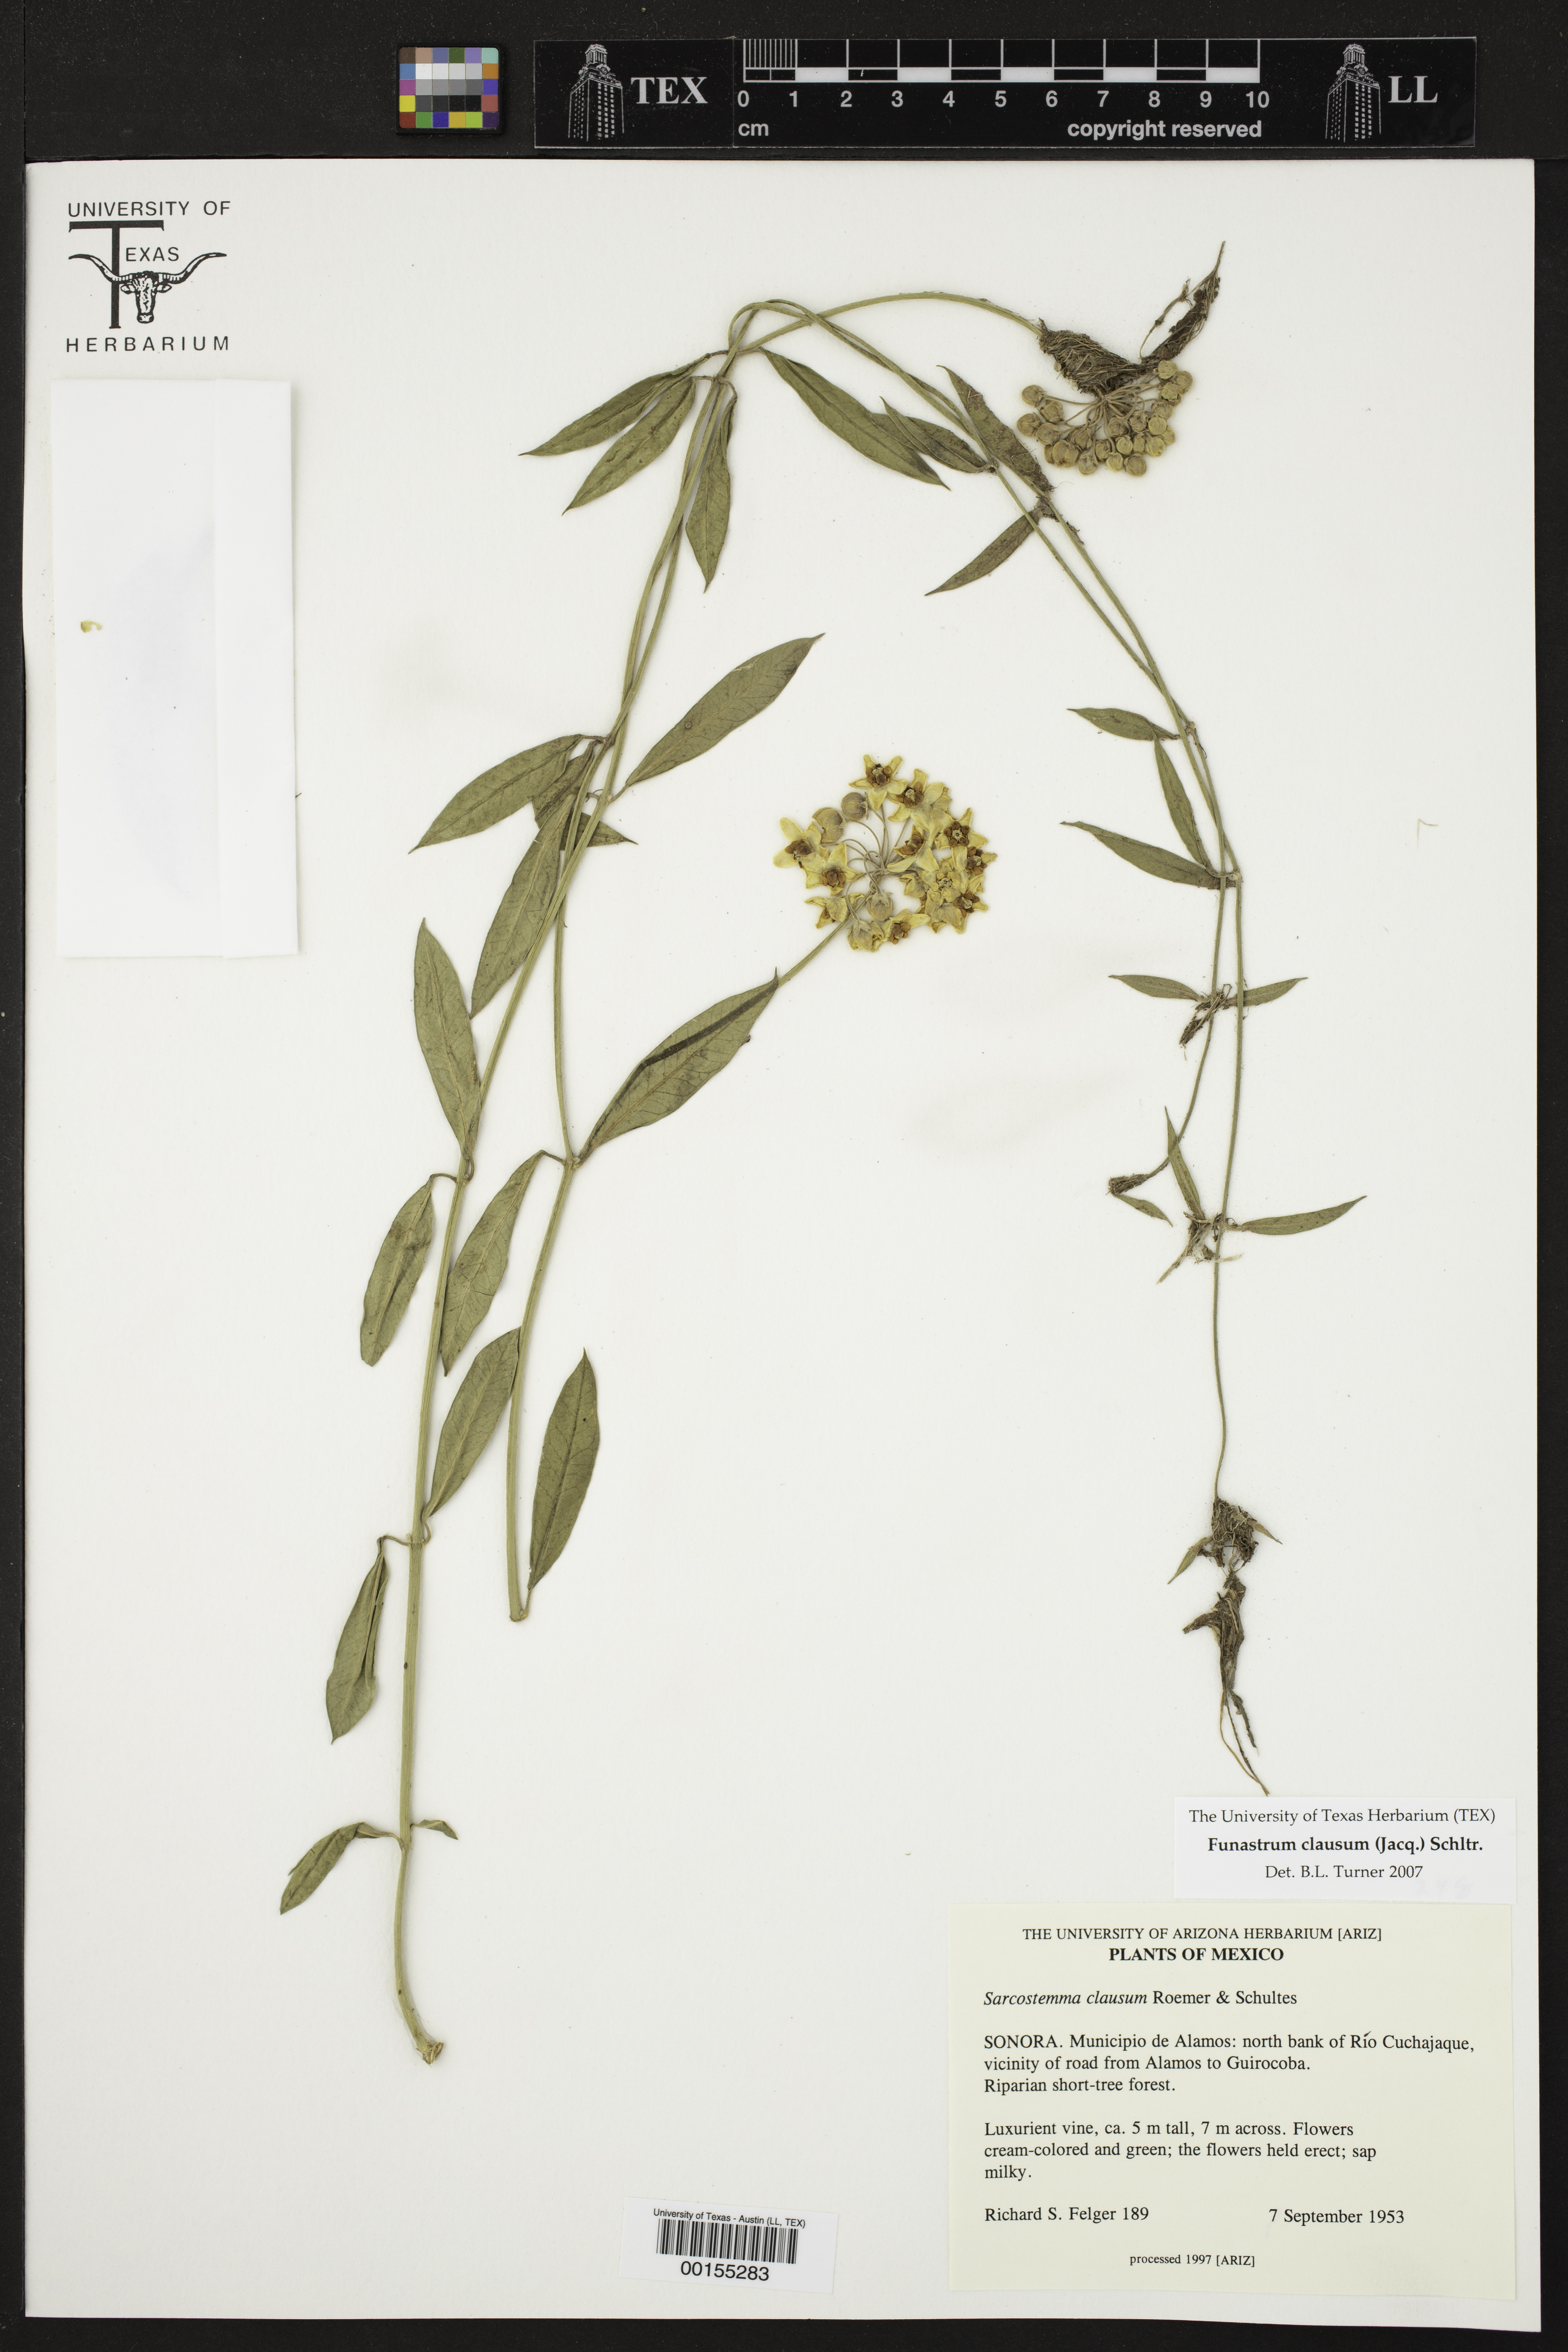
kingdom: Plantae
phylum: Tracheophyta
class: Magnoliopsida
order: Gentianales
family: Apocynaceae
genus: Funastrum
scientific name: Funastrum clausum
